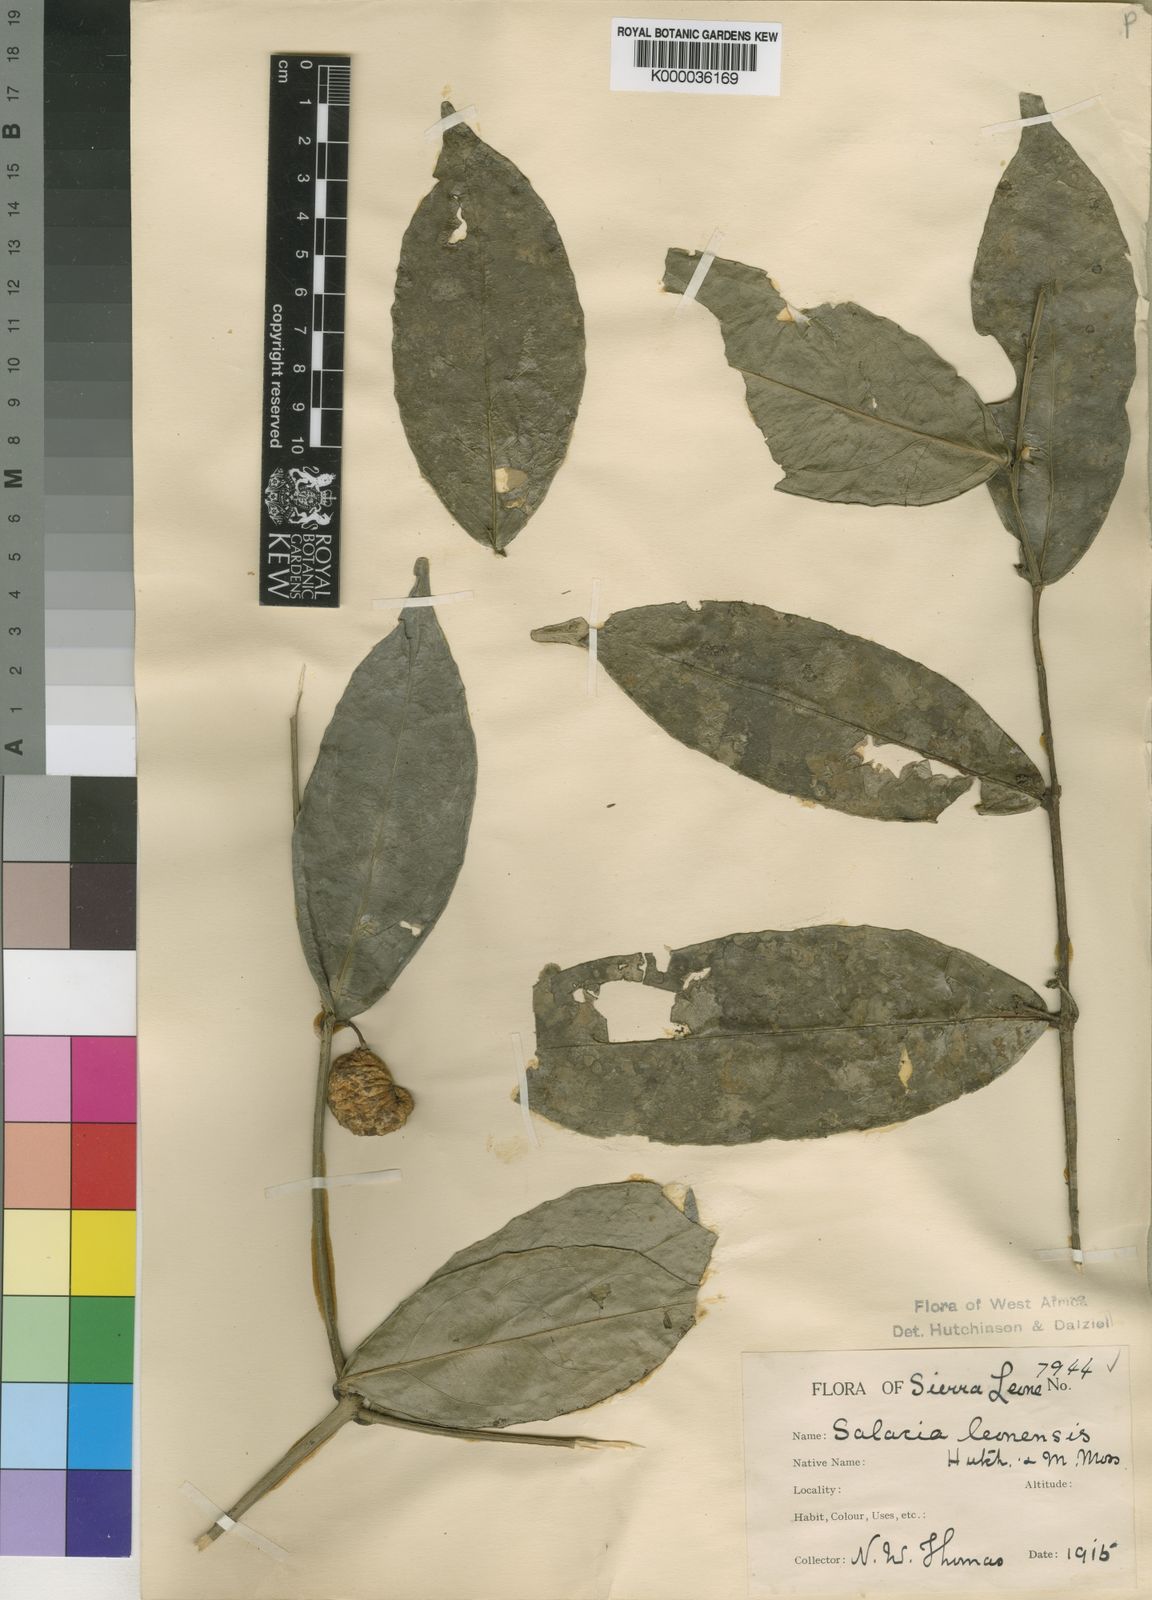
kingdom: Plantae
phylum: Tracheophyta
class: Magnoliopsida
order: Celastrales
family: Celastraceae
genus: Salacia
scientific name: Salacia lehmbachii
